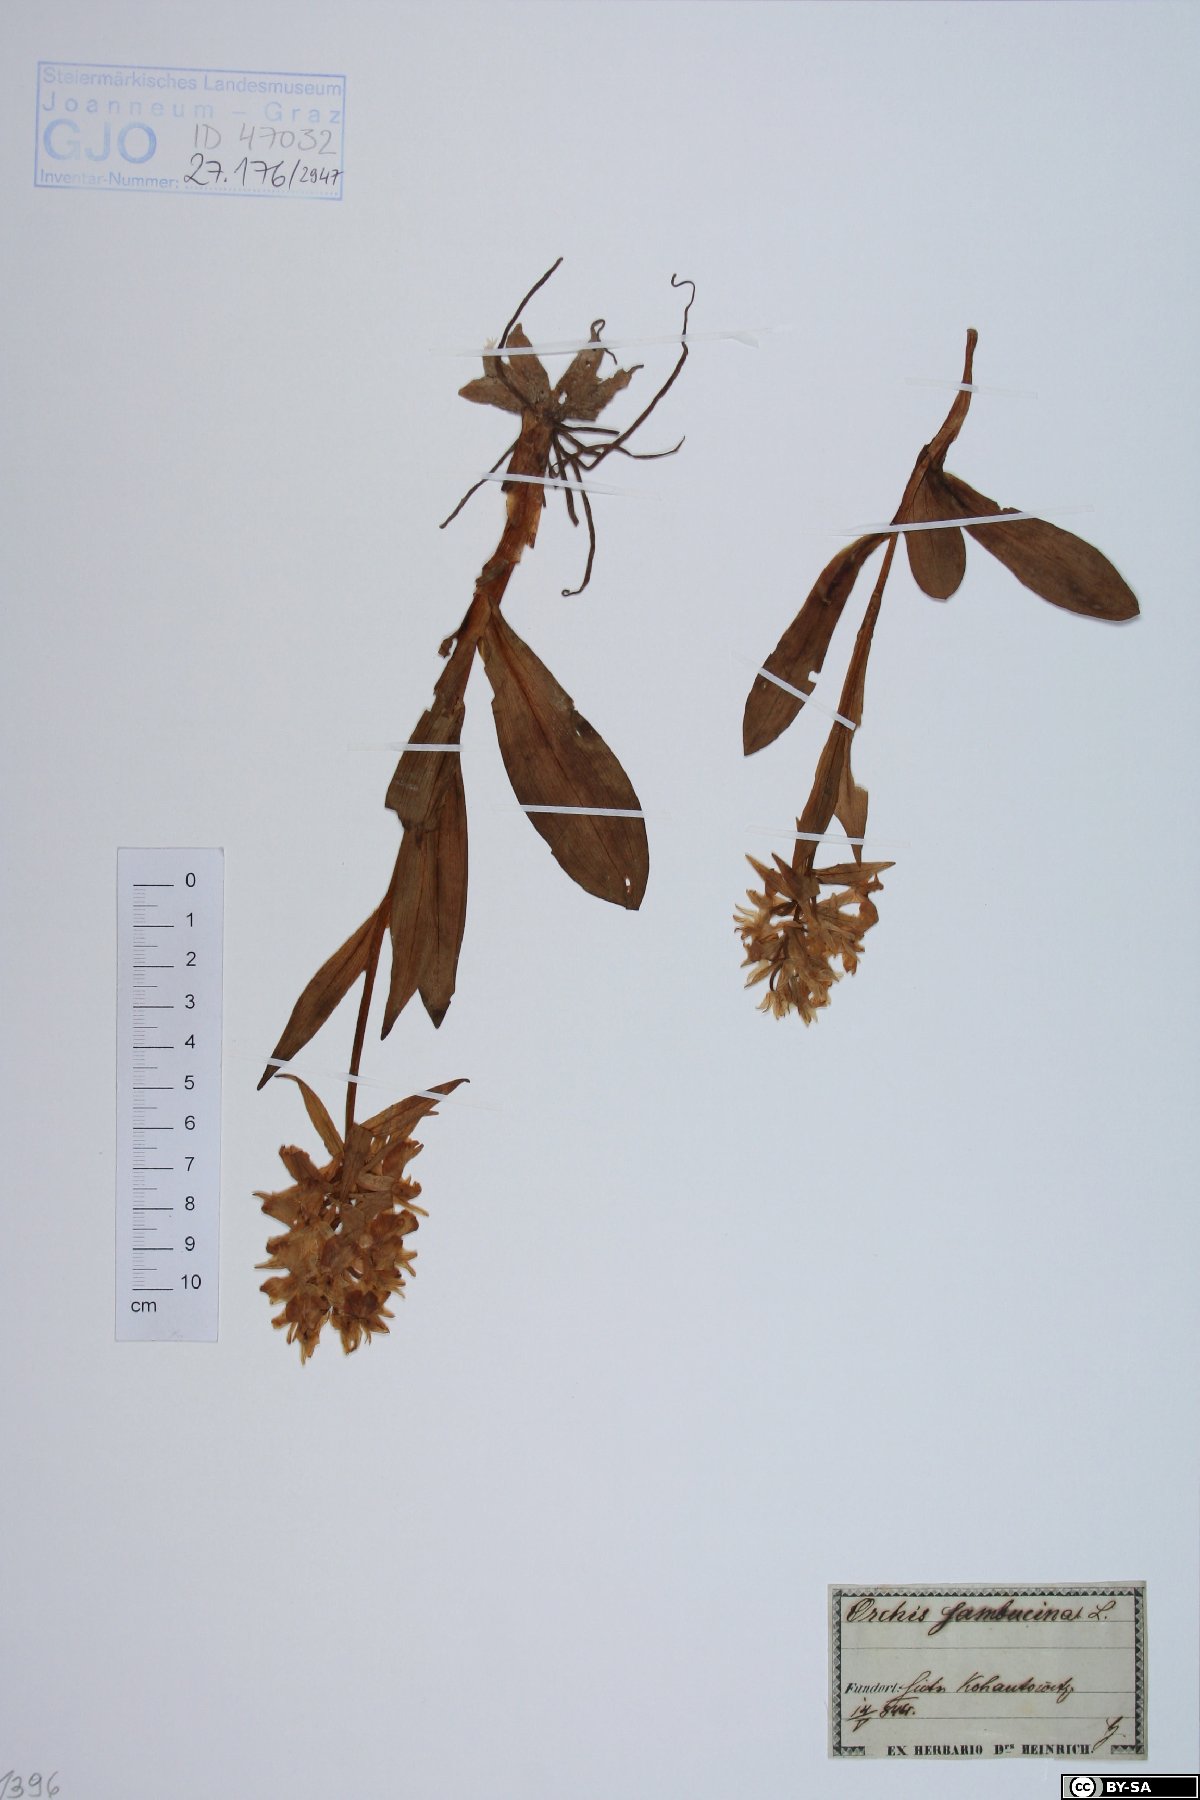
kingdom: Plantae
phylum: Tracheophyta
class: Liliopsida
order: Asparagales
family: Orchidaceae
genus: Dactylorhiza
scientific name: Dactylorhiza sambucina
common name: Elder-flowered orchid
